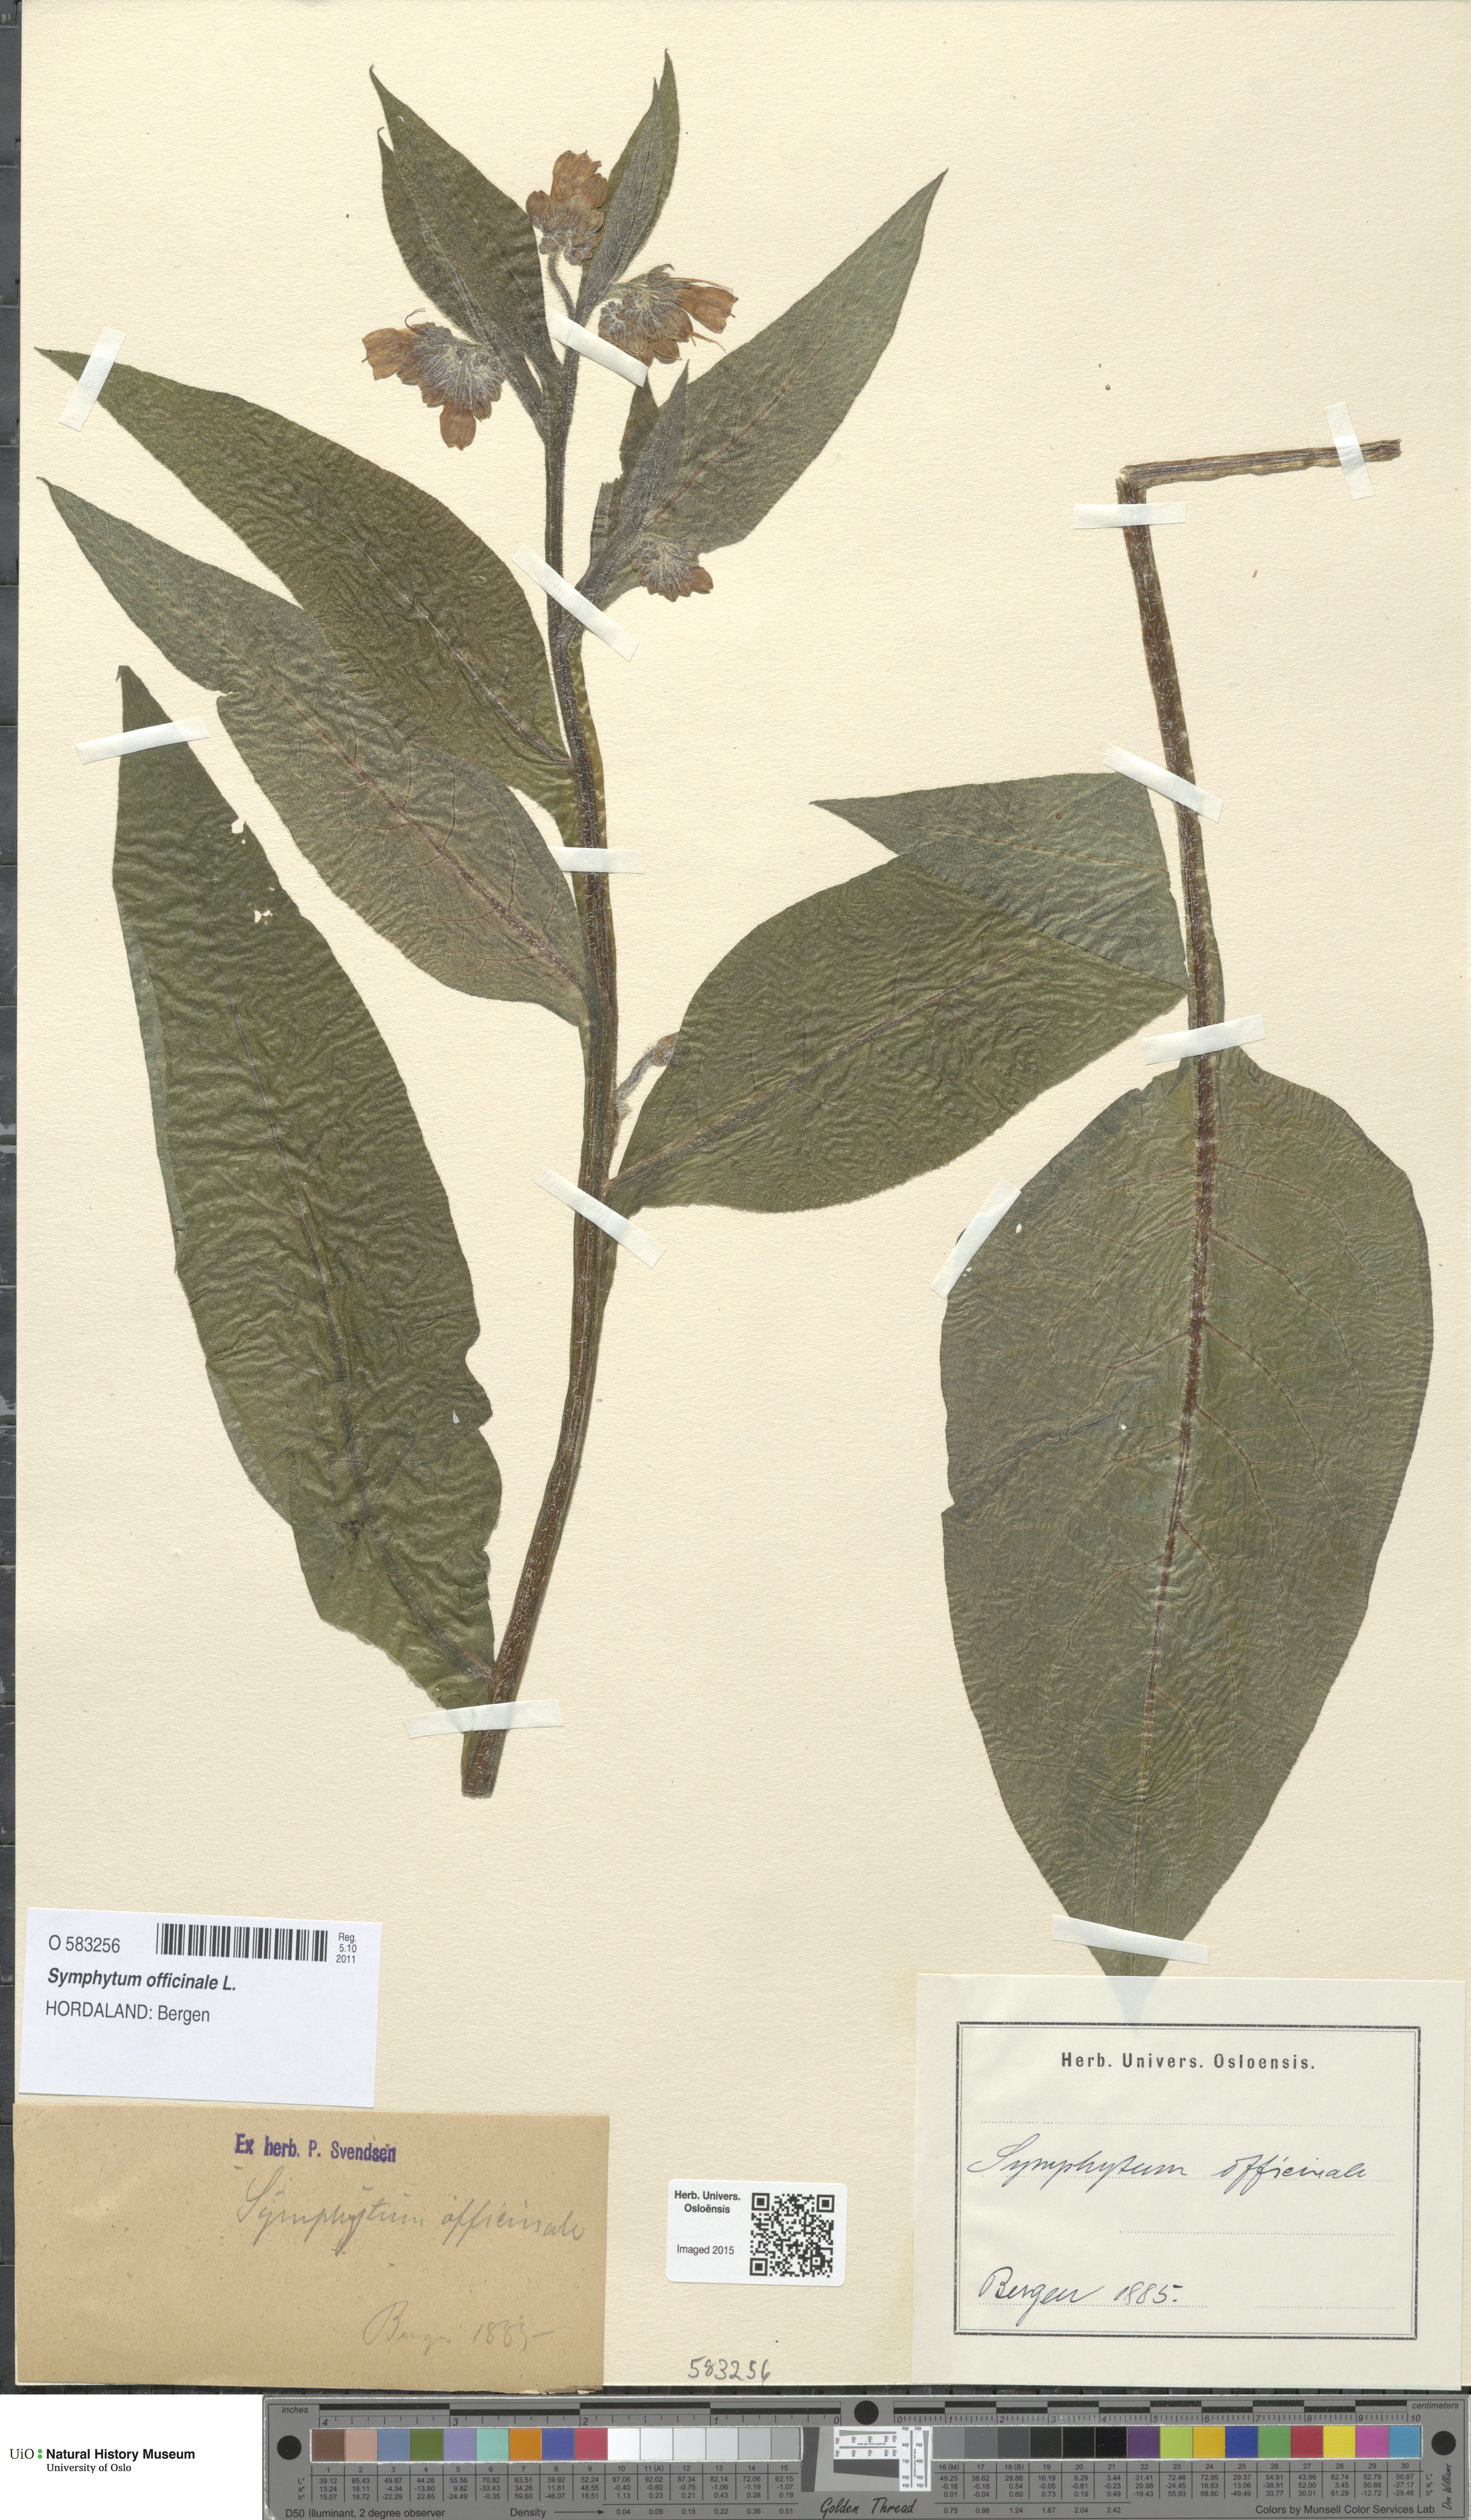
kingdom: Plantae
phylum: Tracheophyta
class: Magnoliopsida
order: Boraginales
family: Boraginaceae
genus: Symphytum
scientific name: Symphytum officinale
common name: Common comfrey
